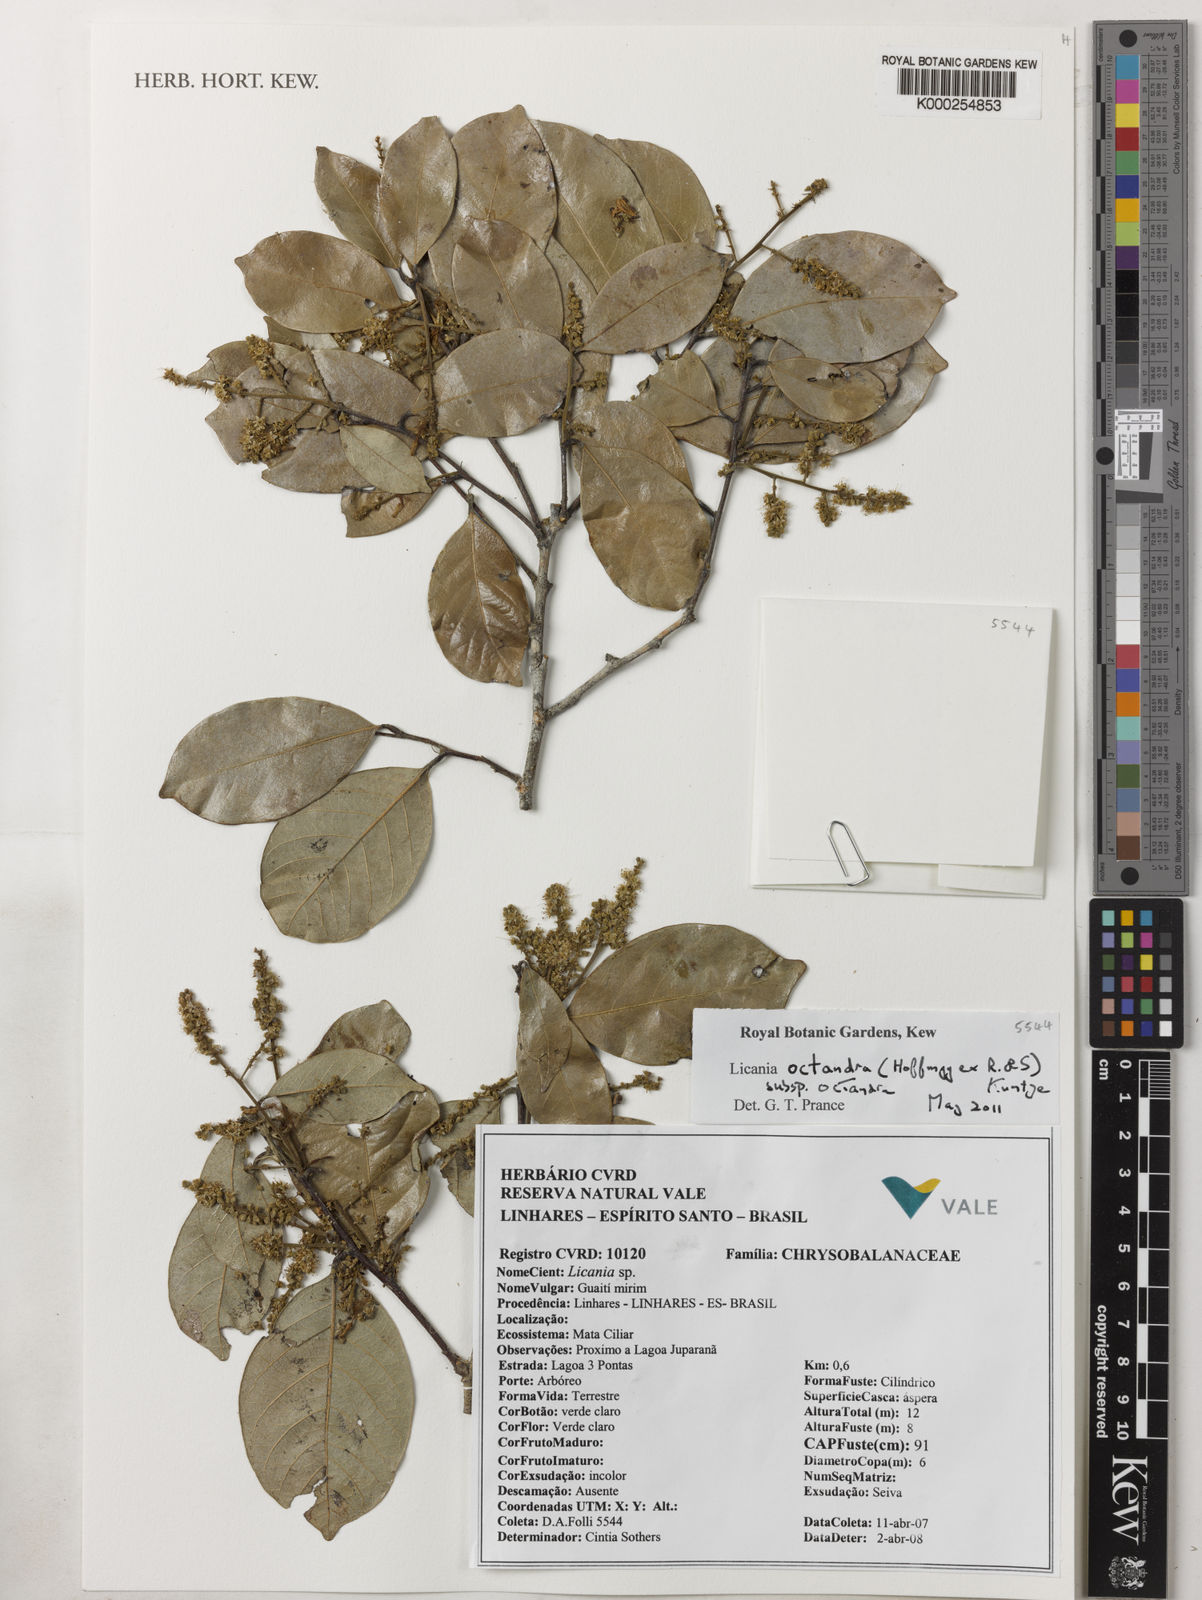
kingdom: Plantae
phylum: Tracheophyta
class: Magnoliopsida
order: Malpighiales
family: Chrysobalanaceae
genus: Leptobalanus
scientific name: Leptobalanus octandrus
